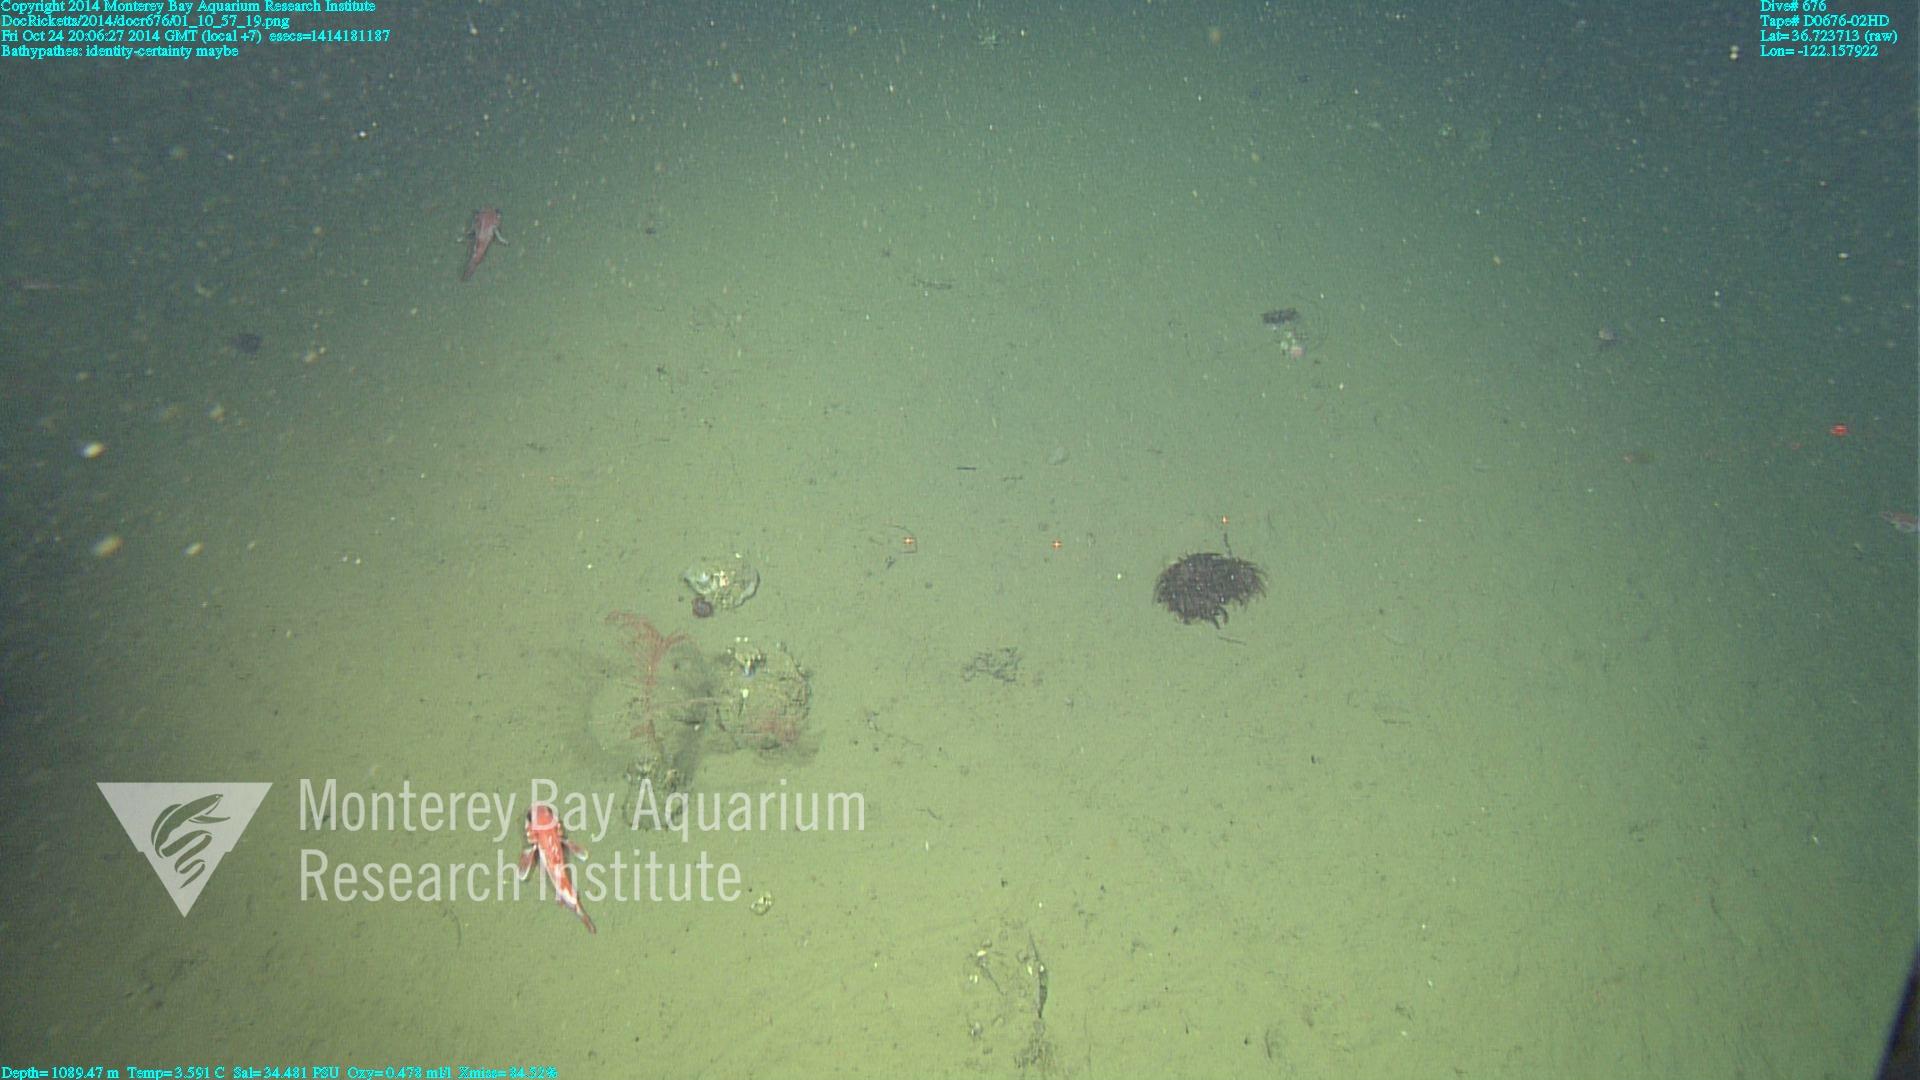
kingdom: Animalia
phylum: Cnidaria
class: Anthozoa
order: Antipatharia
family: Schizopathidae
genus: Bathypathes
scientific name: Bathypathes
